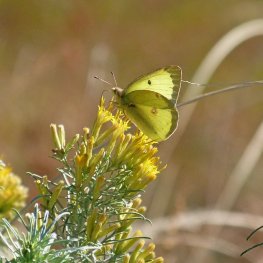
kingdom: Animalia
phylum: Arthropoda
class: Insecta
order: Lepidoptera
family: Pieridae
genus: Colias
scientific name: Colias philodice
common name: Clouded Sulphur
